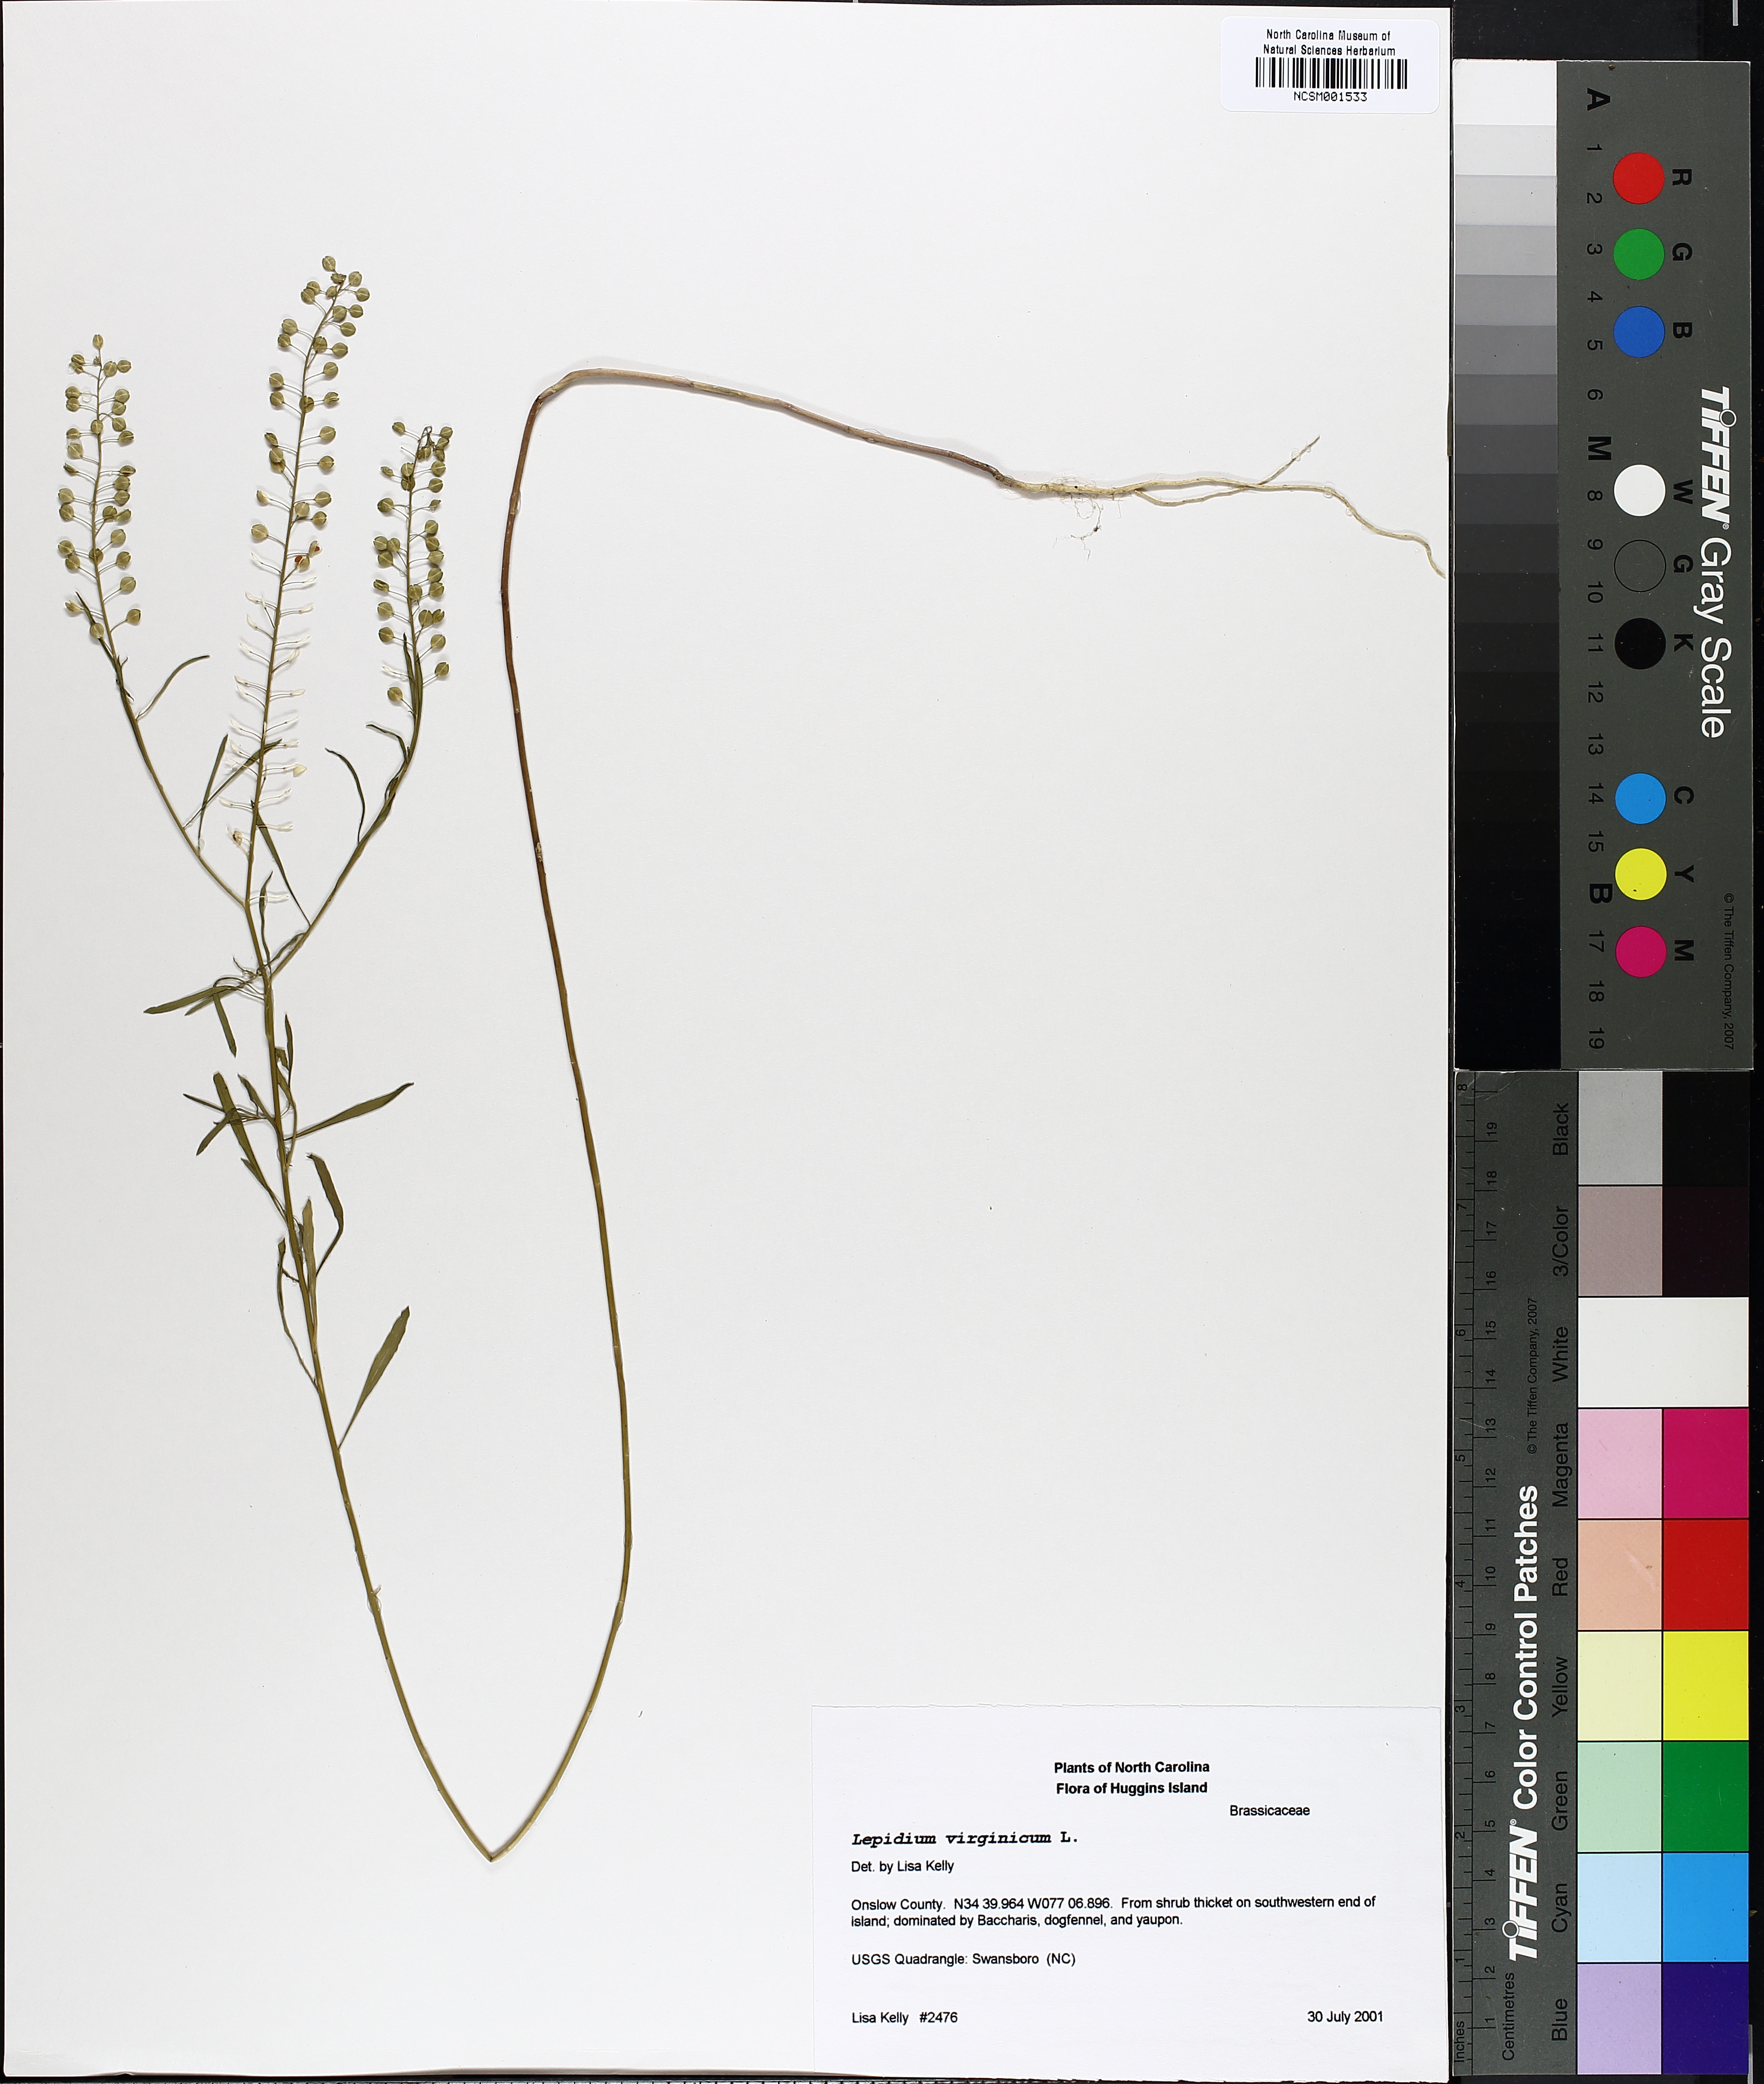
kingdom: Plantae
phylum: Tracheophyta
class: Magnoliopsida
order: Brassicales
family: Brassicaceae
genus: Lepidium
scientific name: Lepidium virginicum
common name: Least pepperwort
